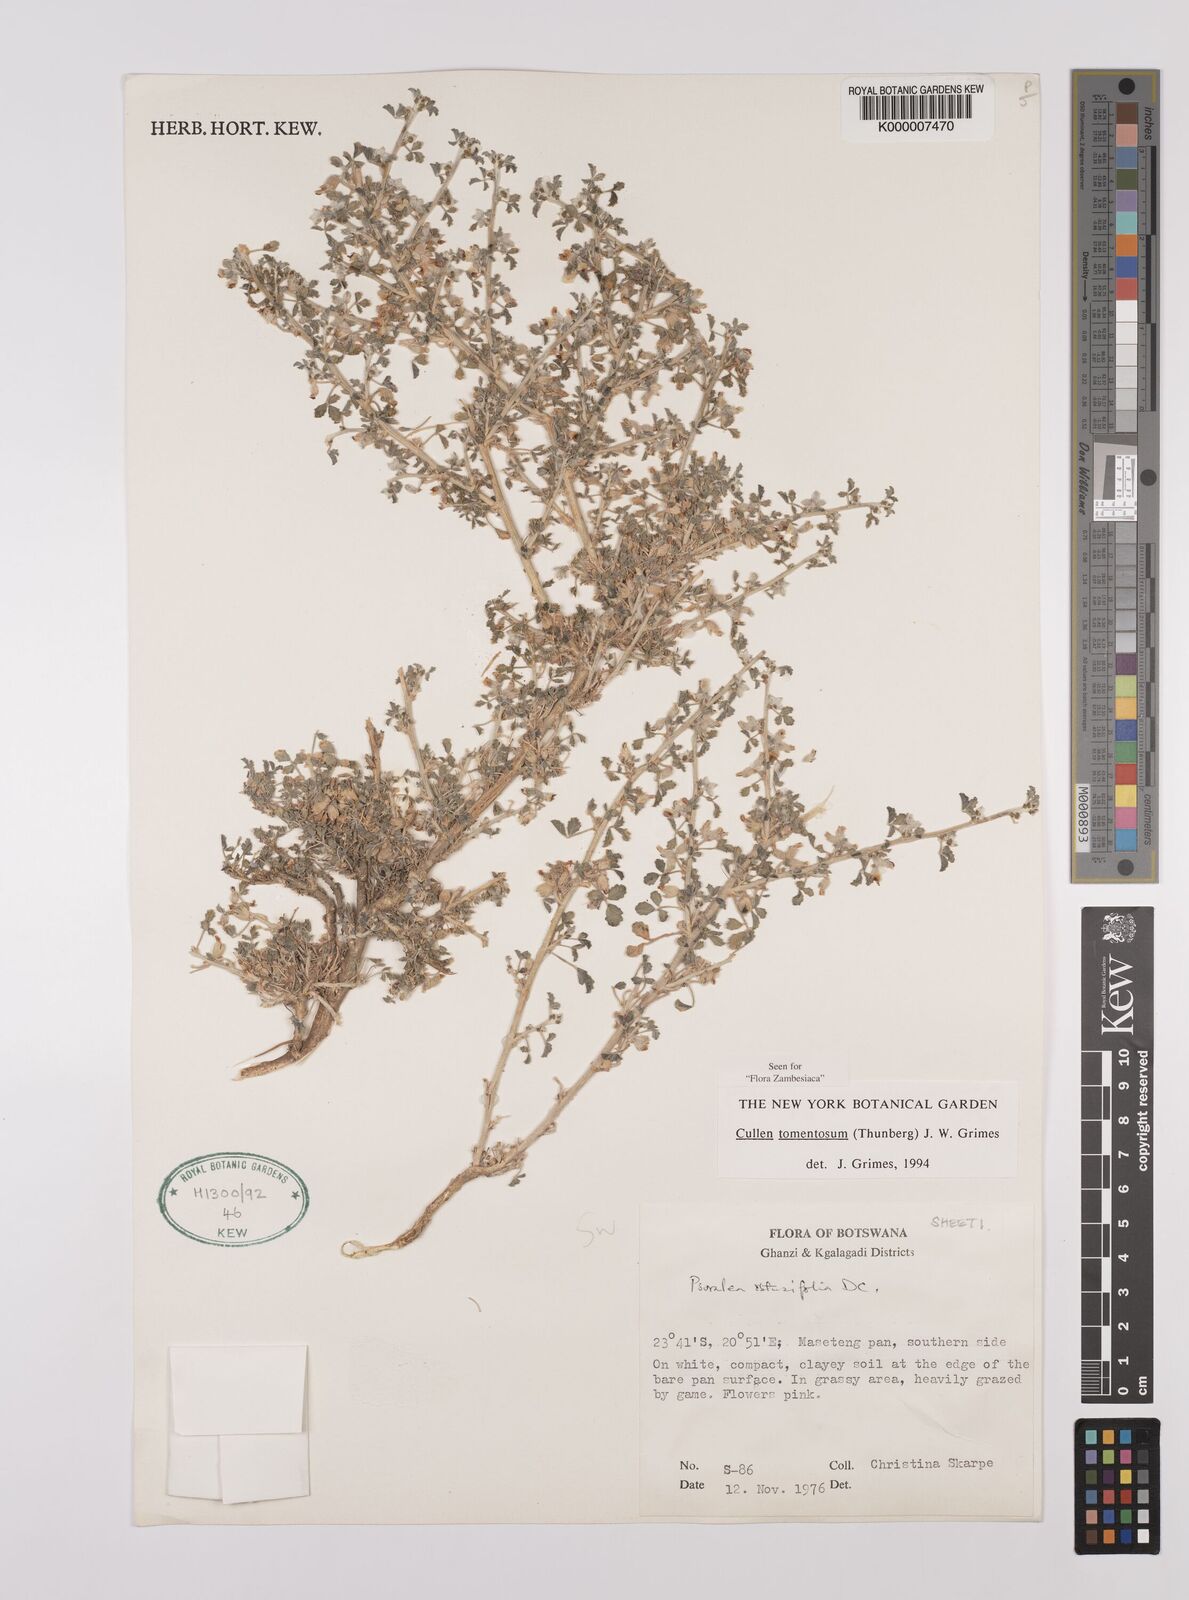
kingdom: Plantae
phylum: Tracheophyta
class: Magnoliopsida
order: Fabales
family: Fabaceae
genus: Cullen
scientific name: Cullen tomentosum
